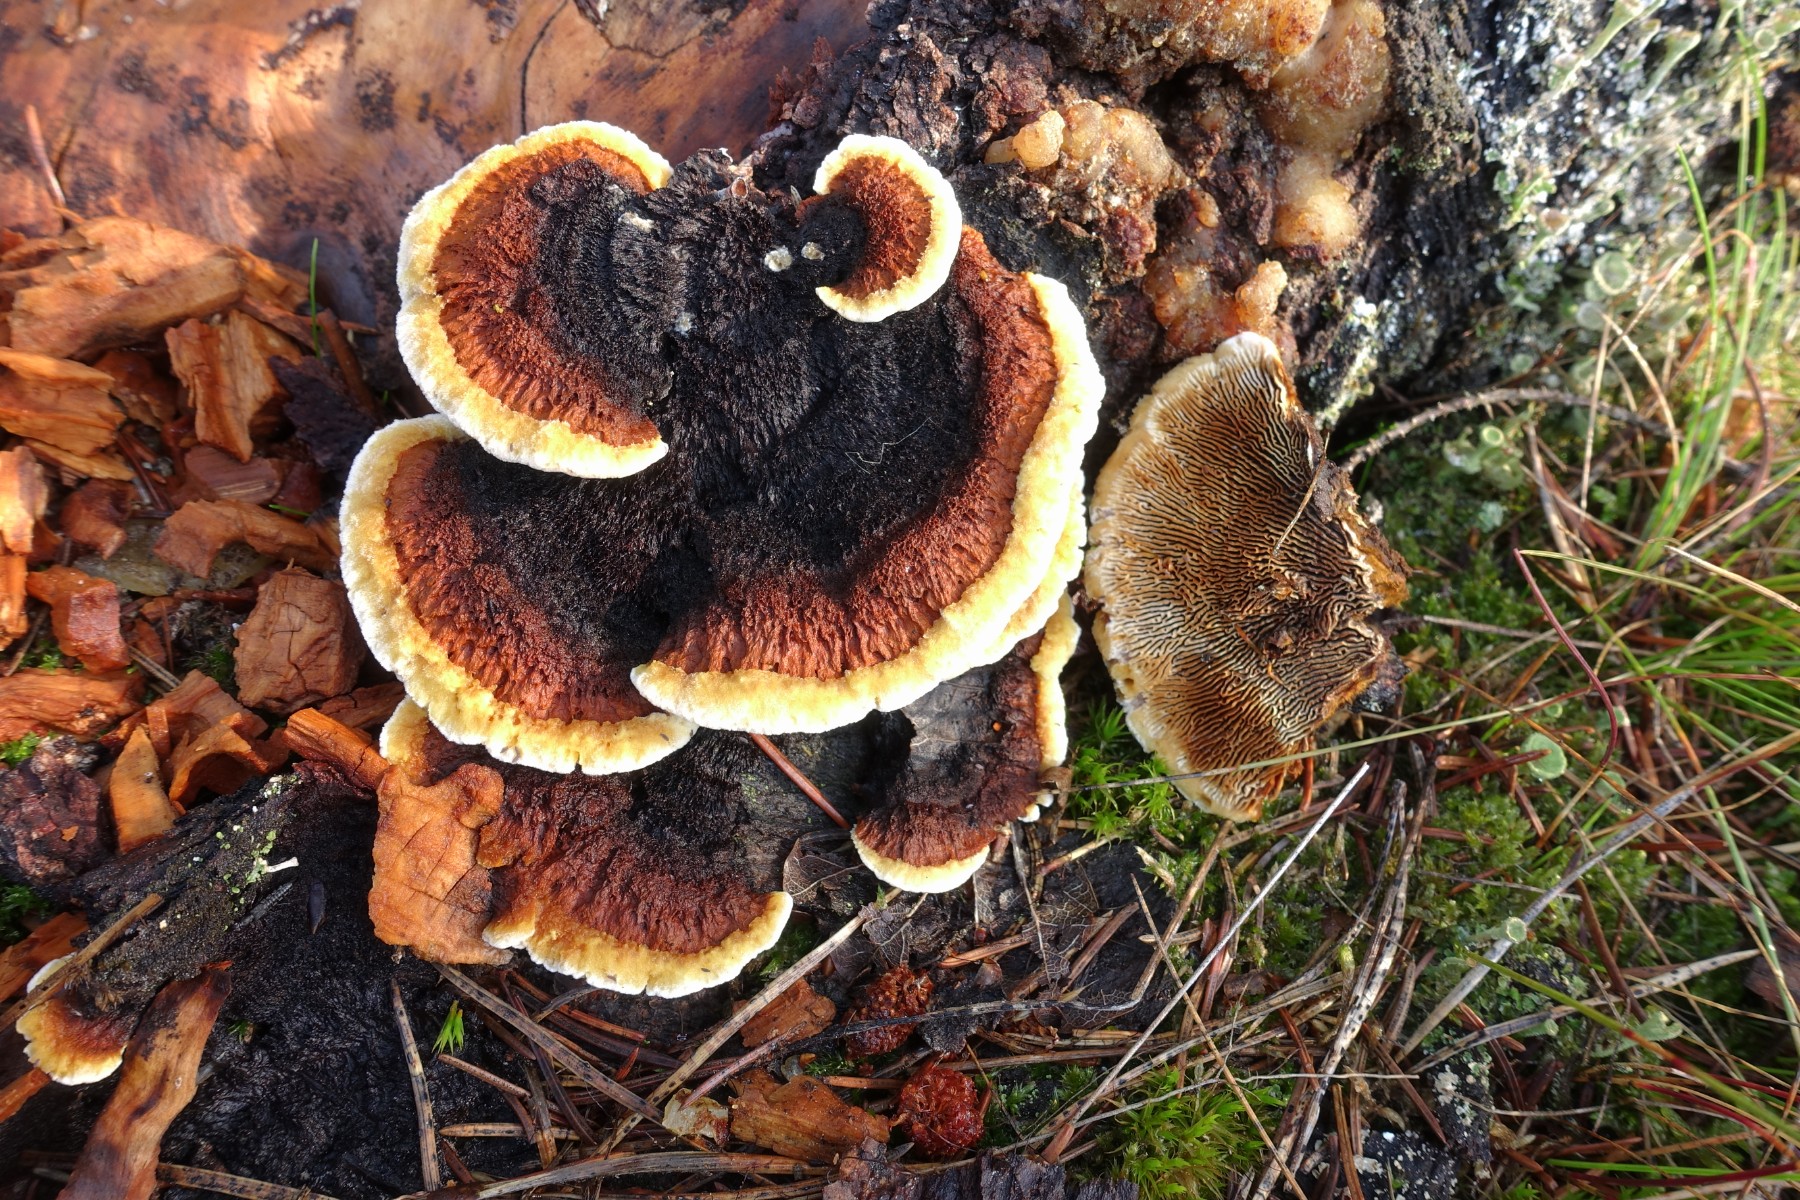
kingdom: Fungi
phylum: Basidiomycota
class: Agaricomycetes
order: Gloeophyllales
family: Gloeophyllaceae
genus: Gloeophyllum
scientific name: Gloeophyllum sepiarium
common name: fyrre-korkhat
